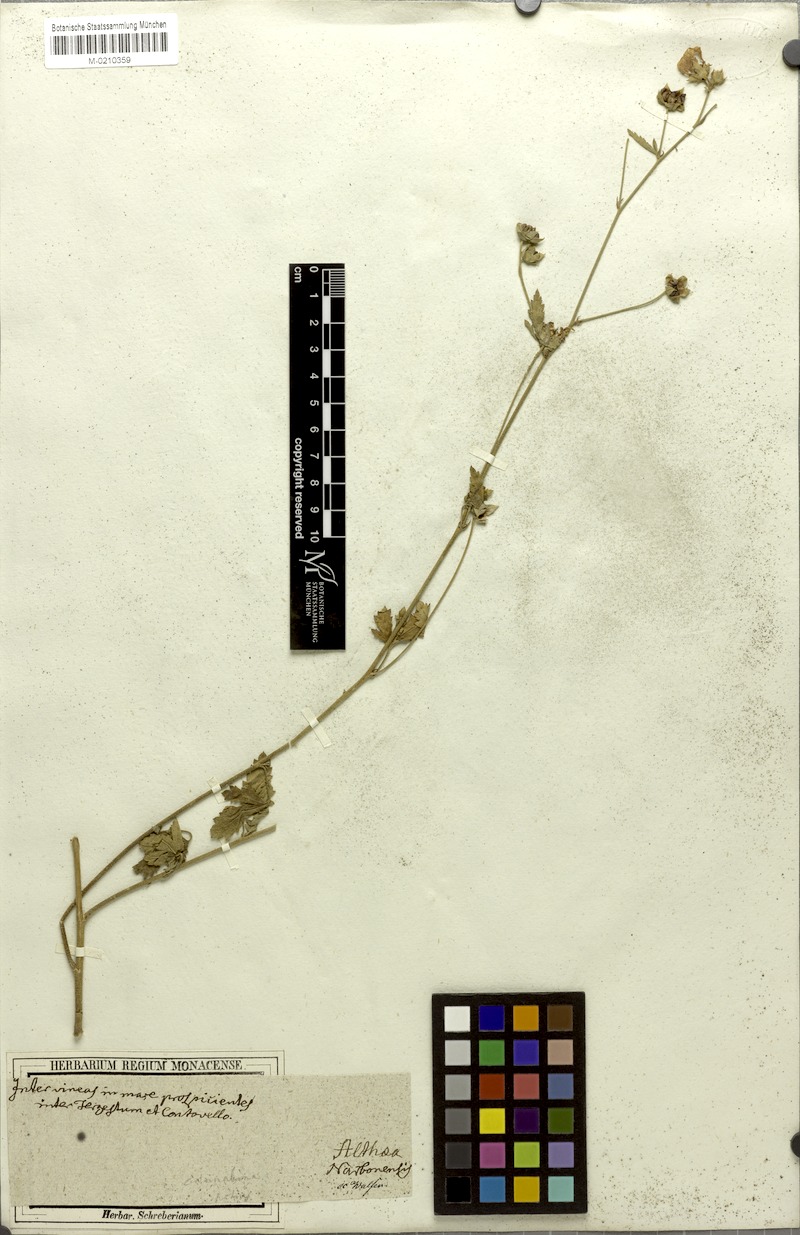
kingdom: Plantae
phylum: Tracheophyta
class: Magnoliopsida
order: Malvales
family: Malvaceae
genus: Althaea
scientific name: Althaea cannabina
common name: Palm-leaf marshmallow
